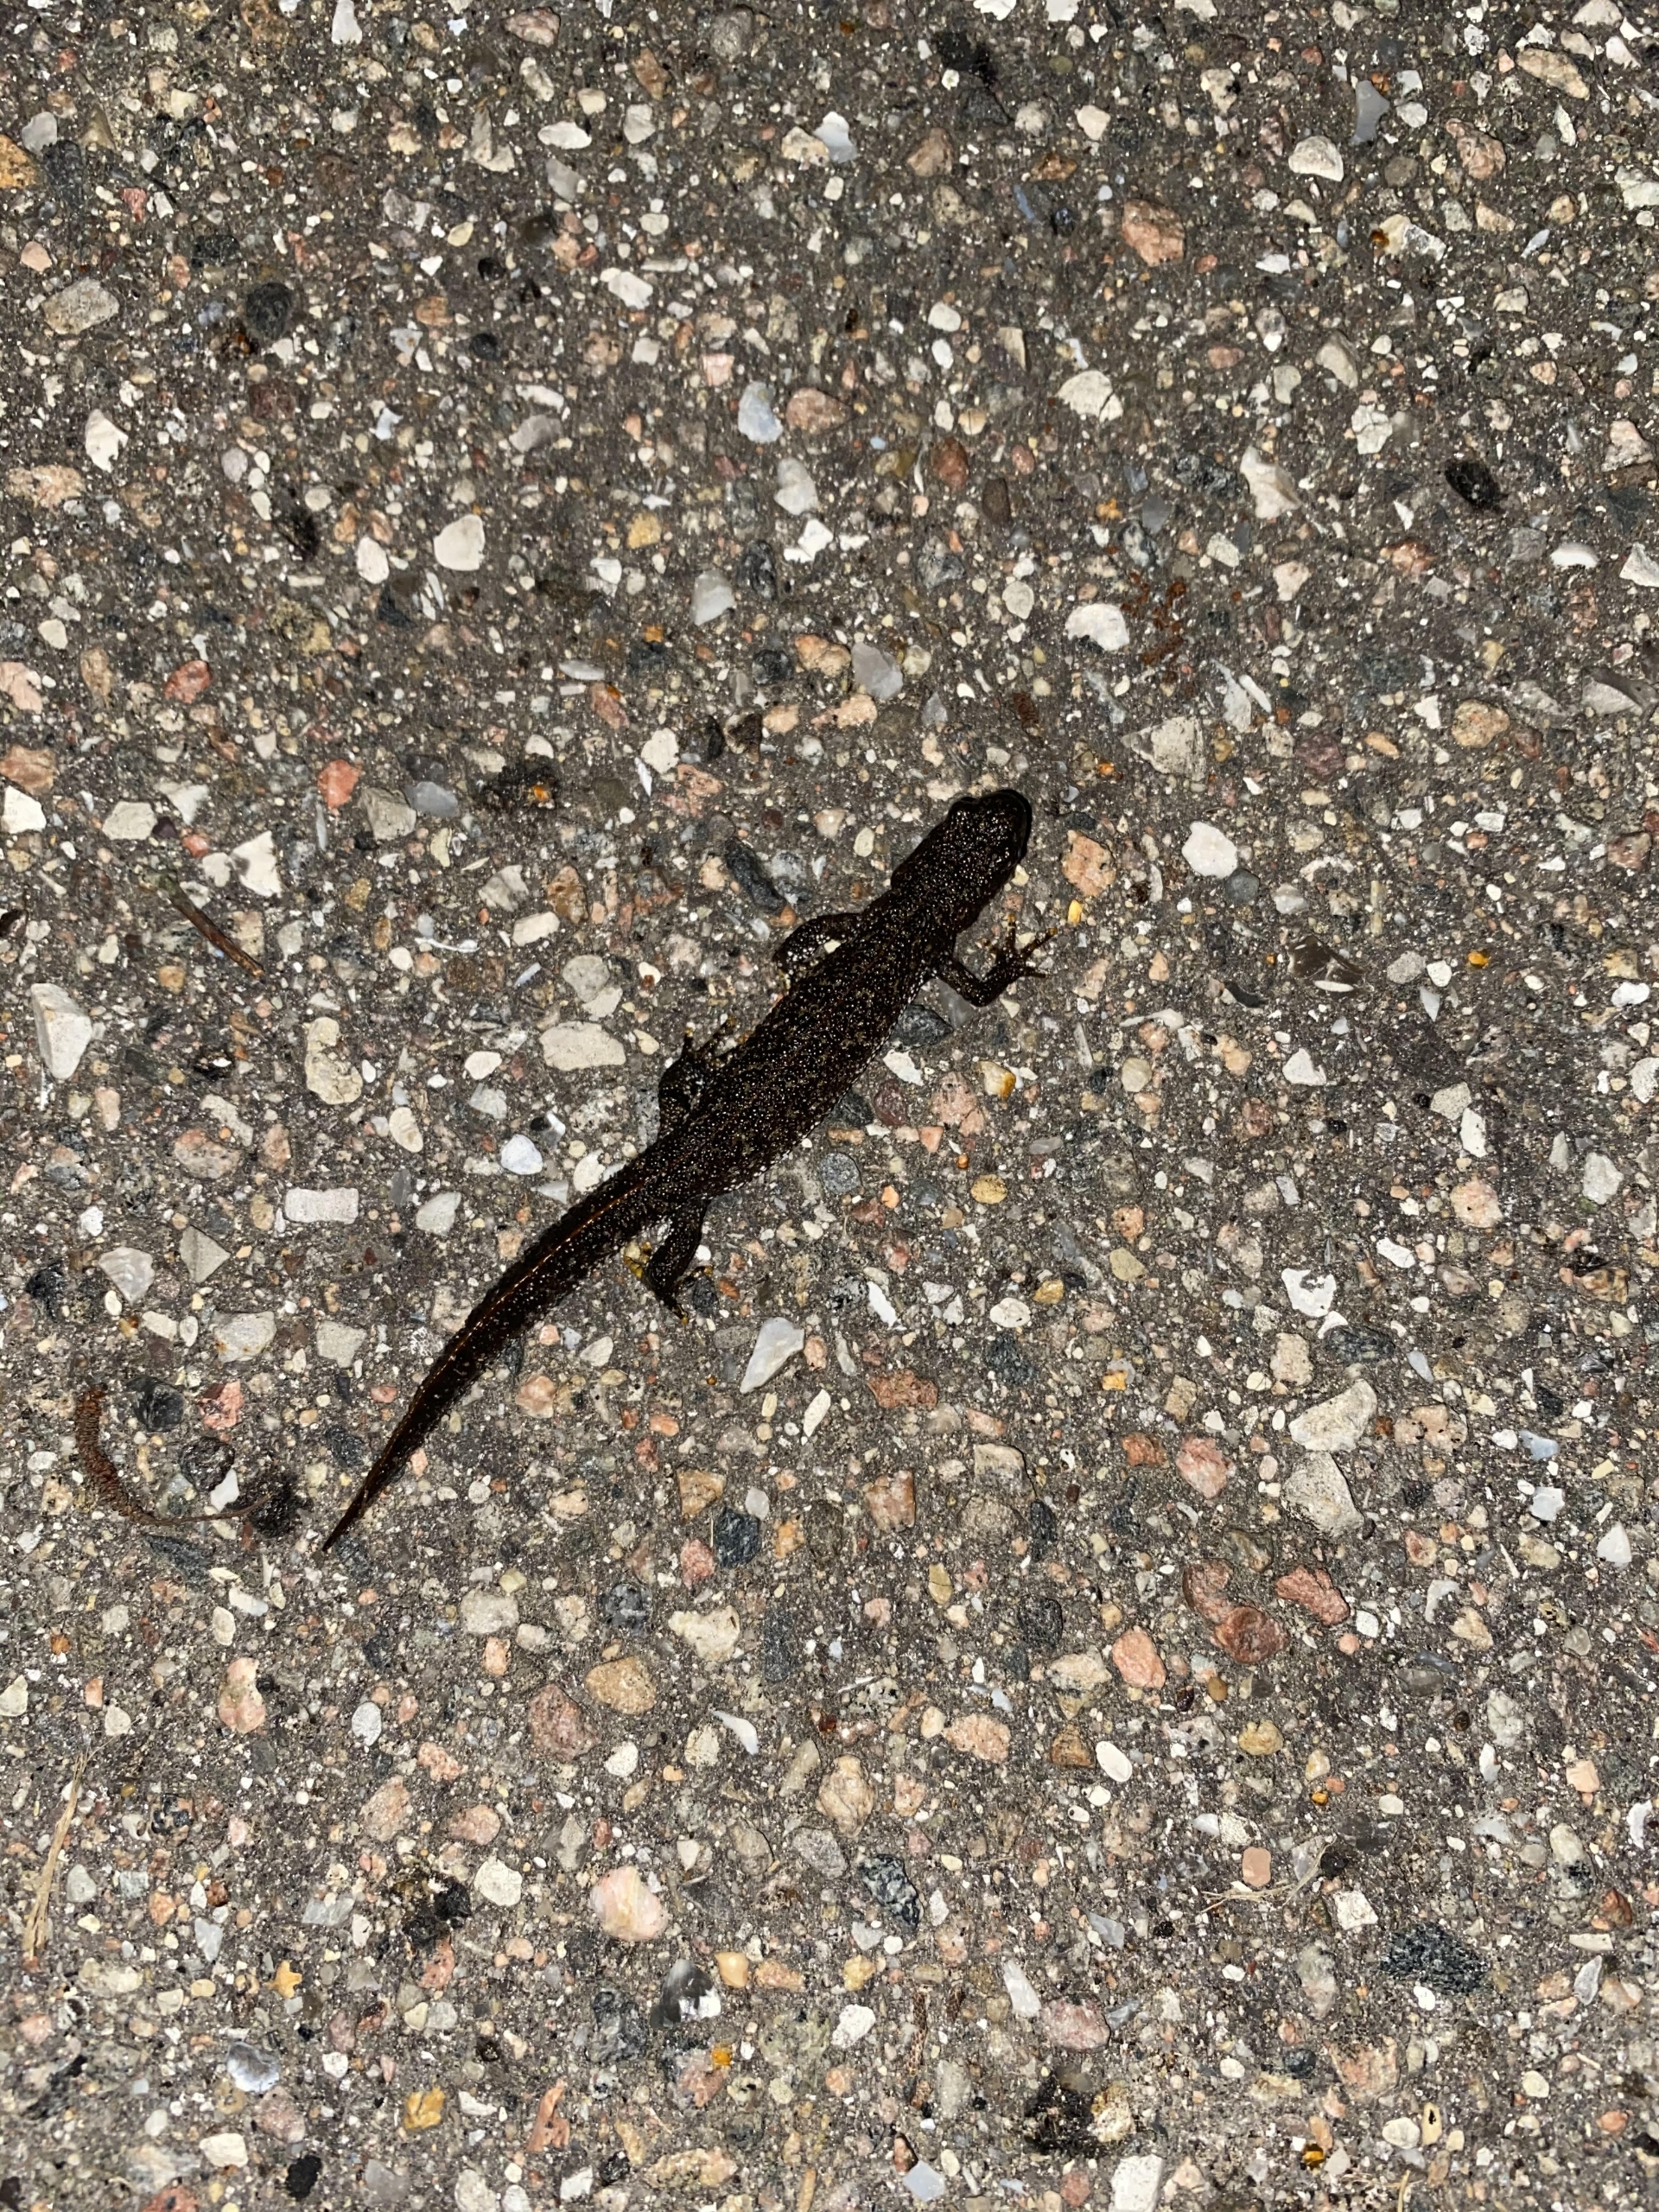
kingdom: Animalia
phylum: Chordata
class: Amphibia
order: Caudata
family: Salamandridae
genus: Triturus
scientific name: Triturus cristatus
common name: Stor vandsalamander
